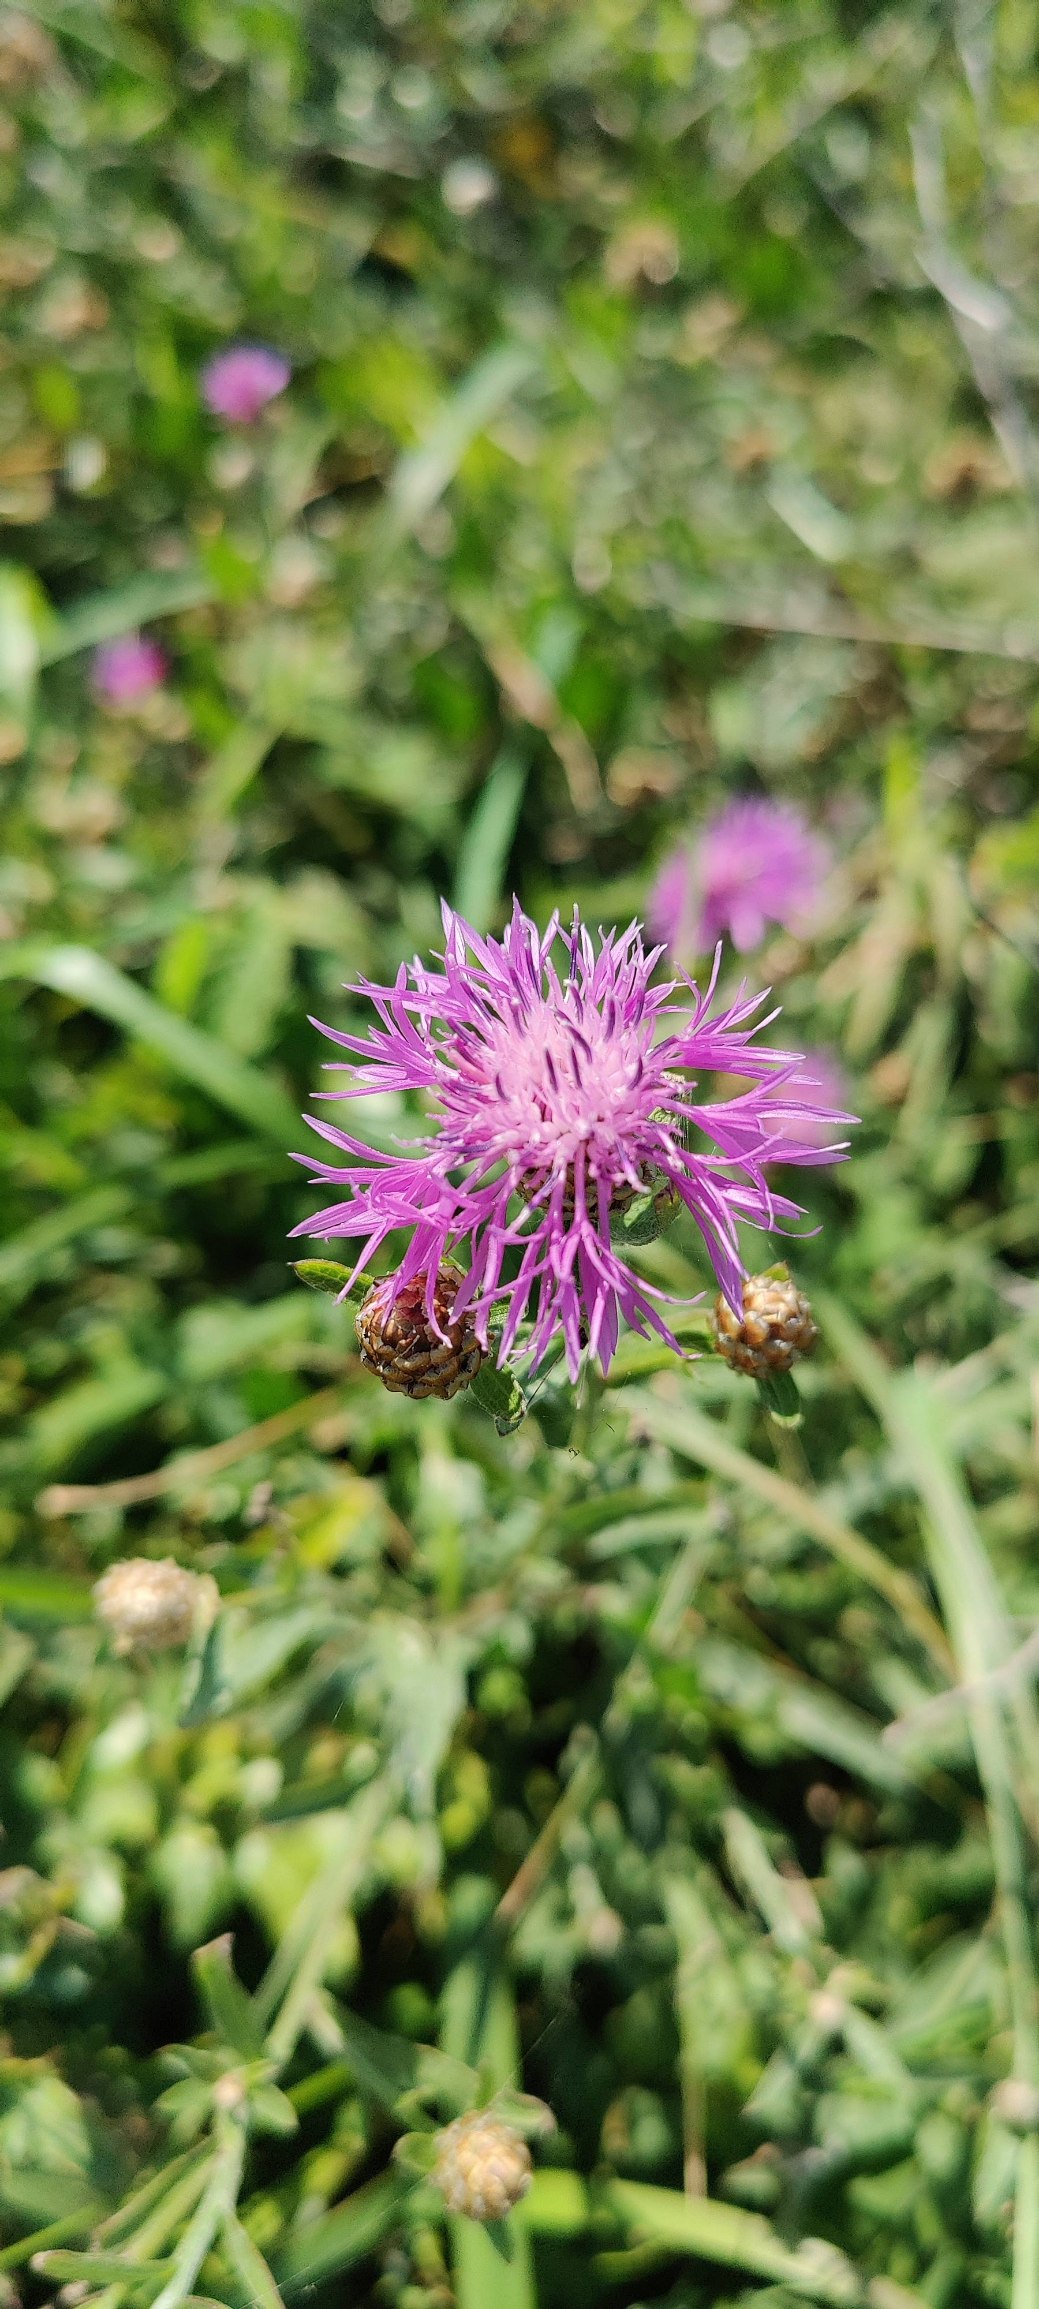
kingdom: Plantae
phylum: Tracheophyta
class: Magnoliopsida
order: Asterales
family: Asteraceae
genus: Centaurea
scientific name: Centaurea jacea
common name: Almindelig knopurt
